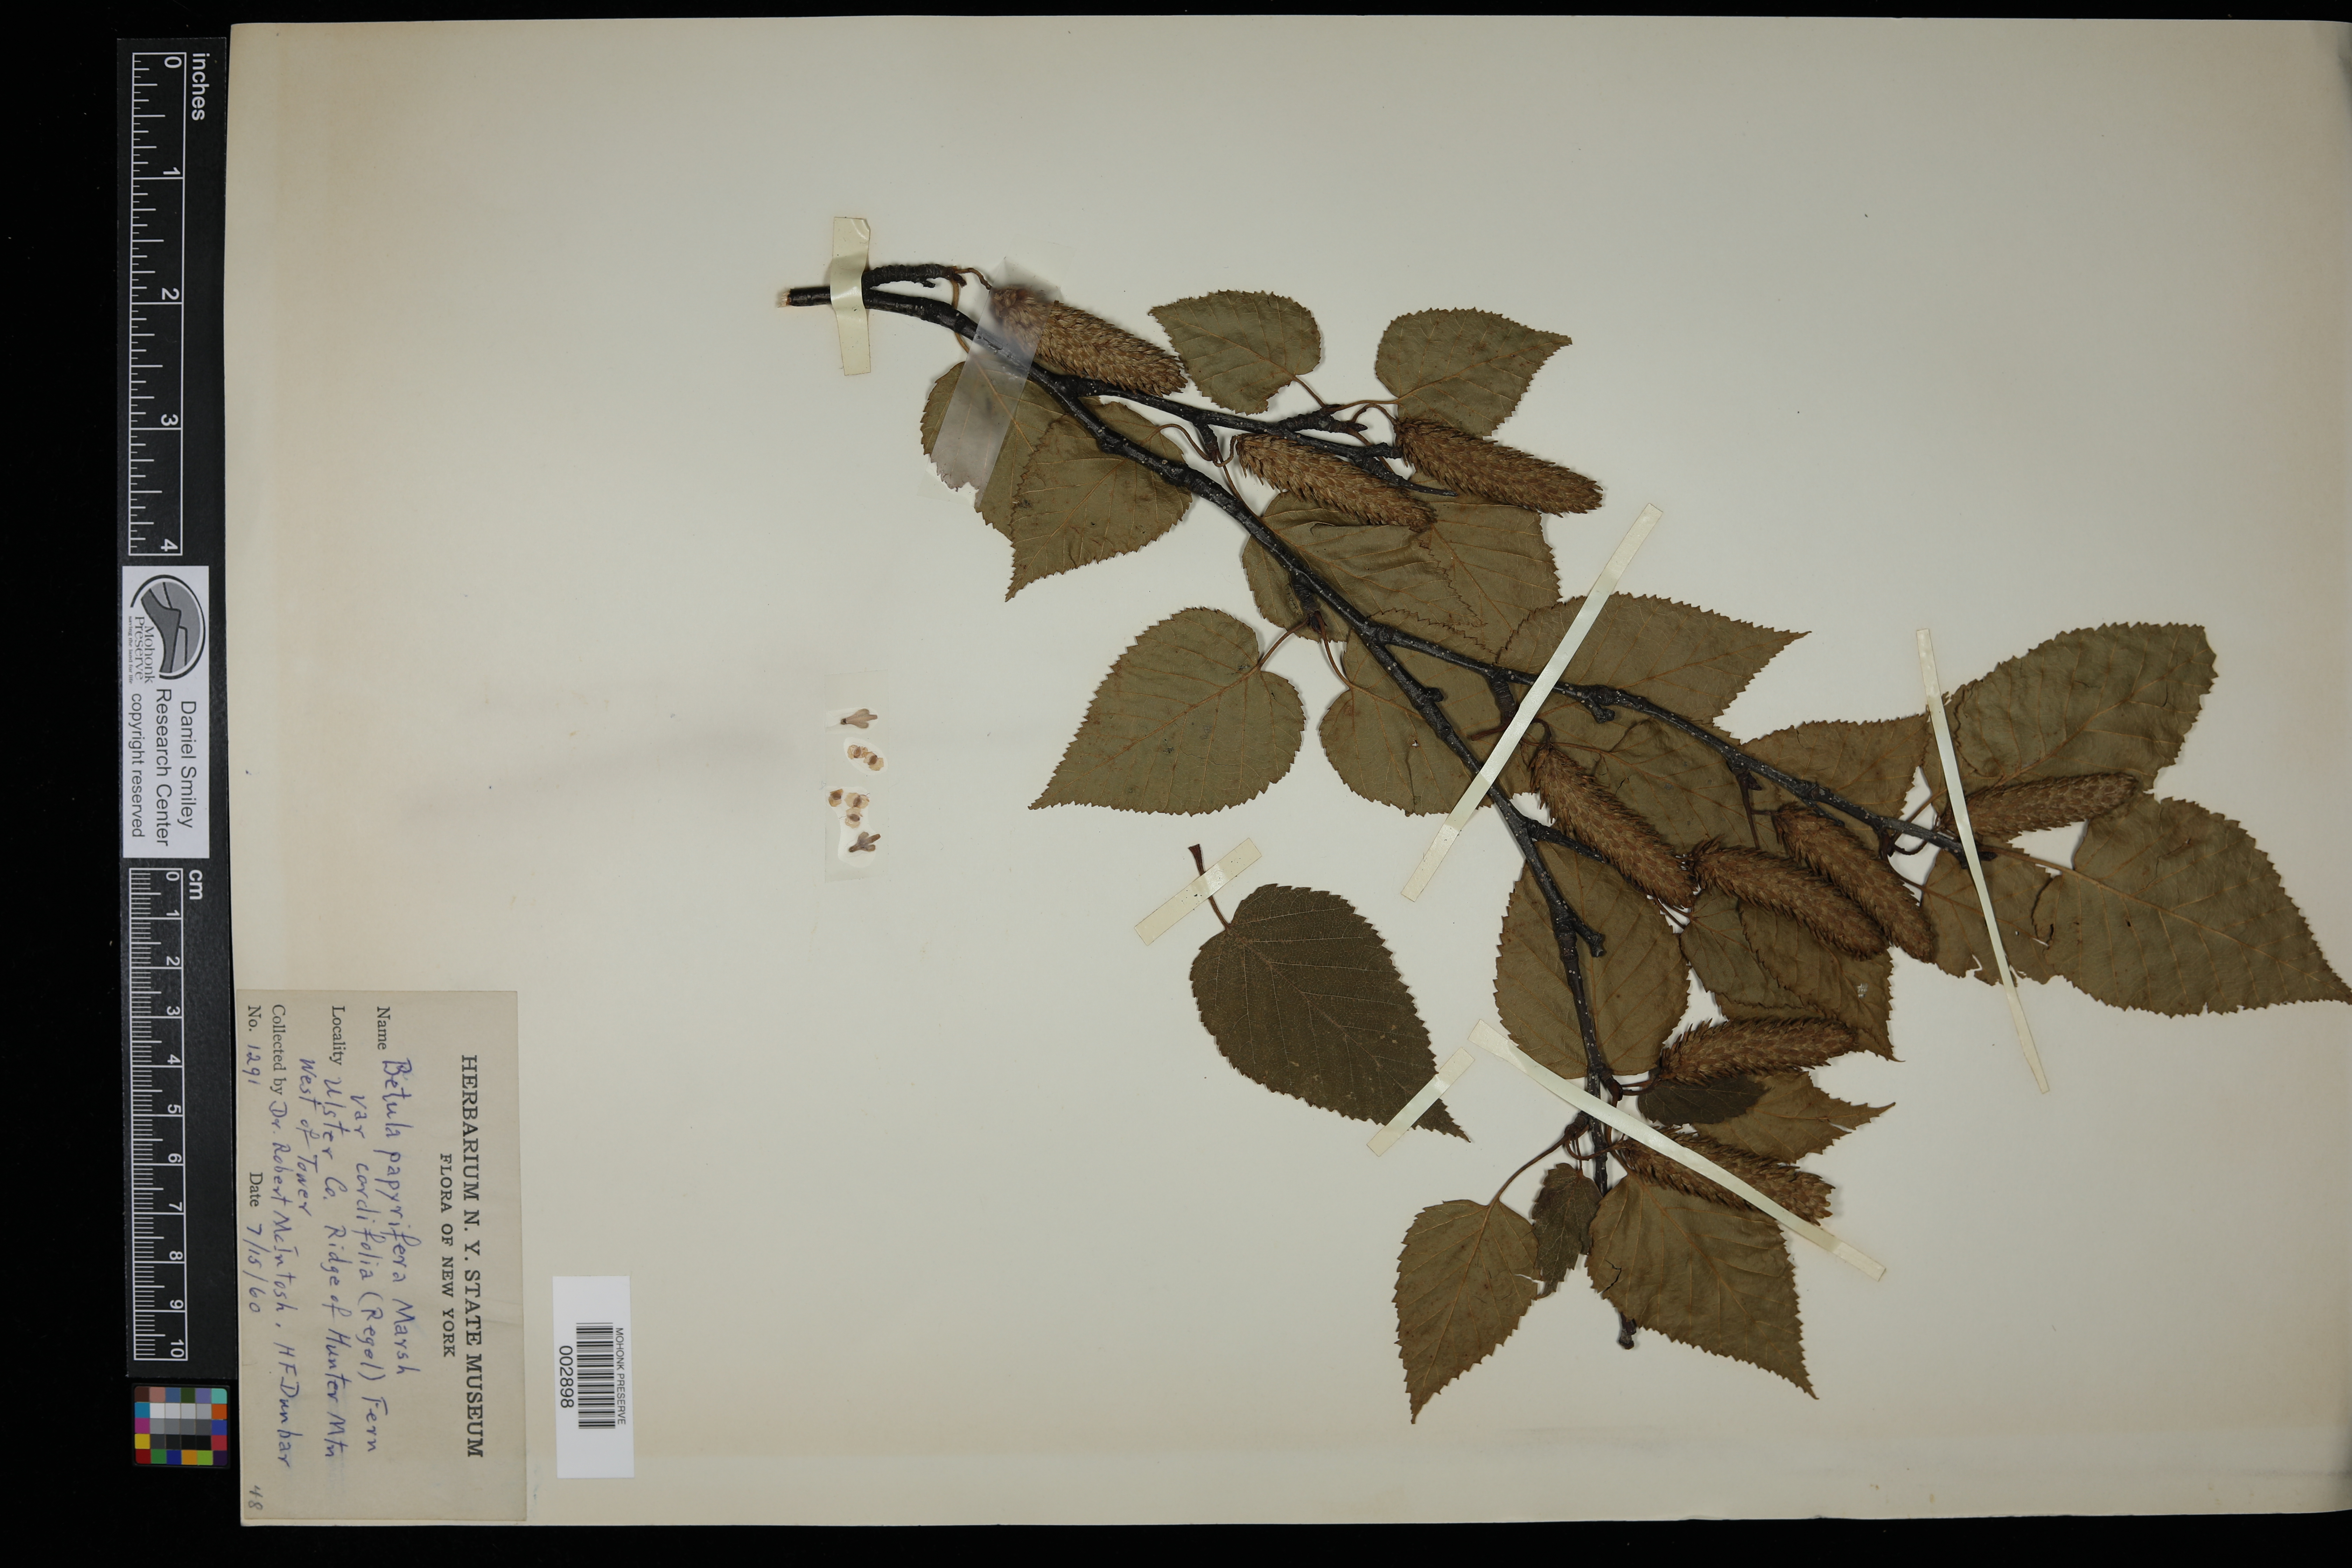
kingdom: Plantae
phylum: Tracheophyta
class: Magnoliopsida
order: Fagales
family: Betulaceae
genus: Betula
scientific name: Betula cordifolia
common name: Mountain white birch
